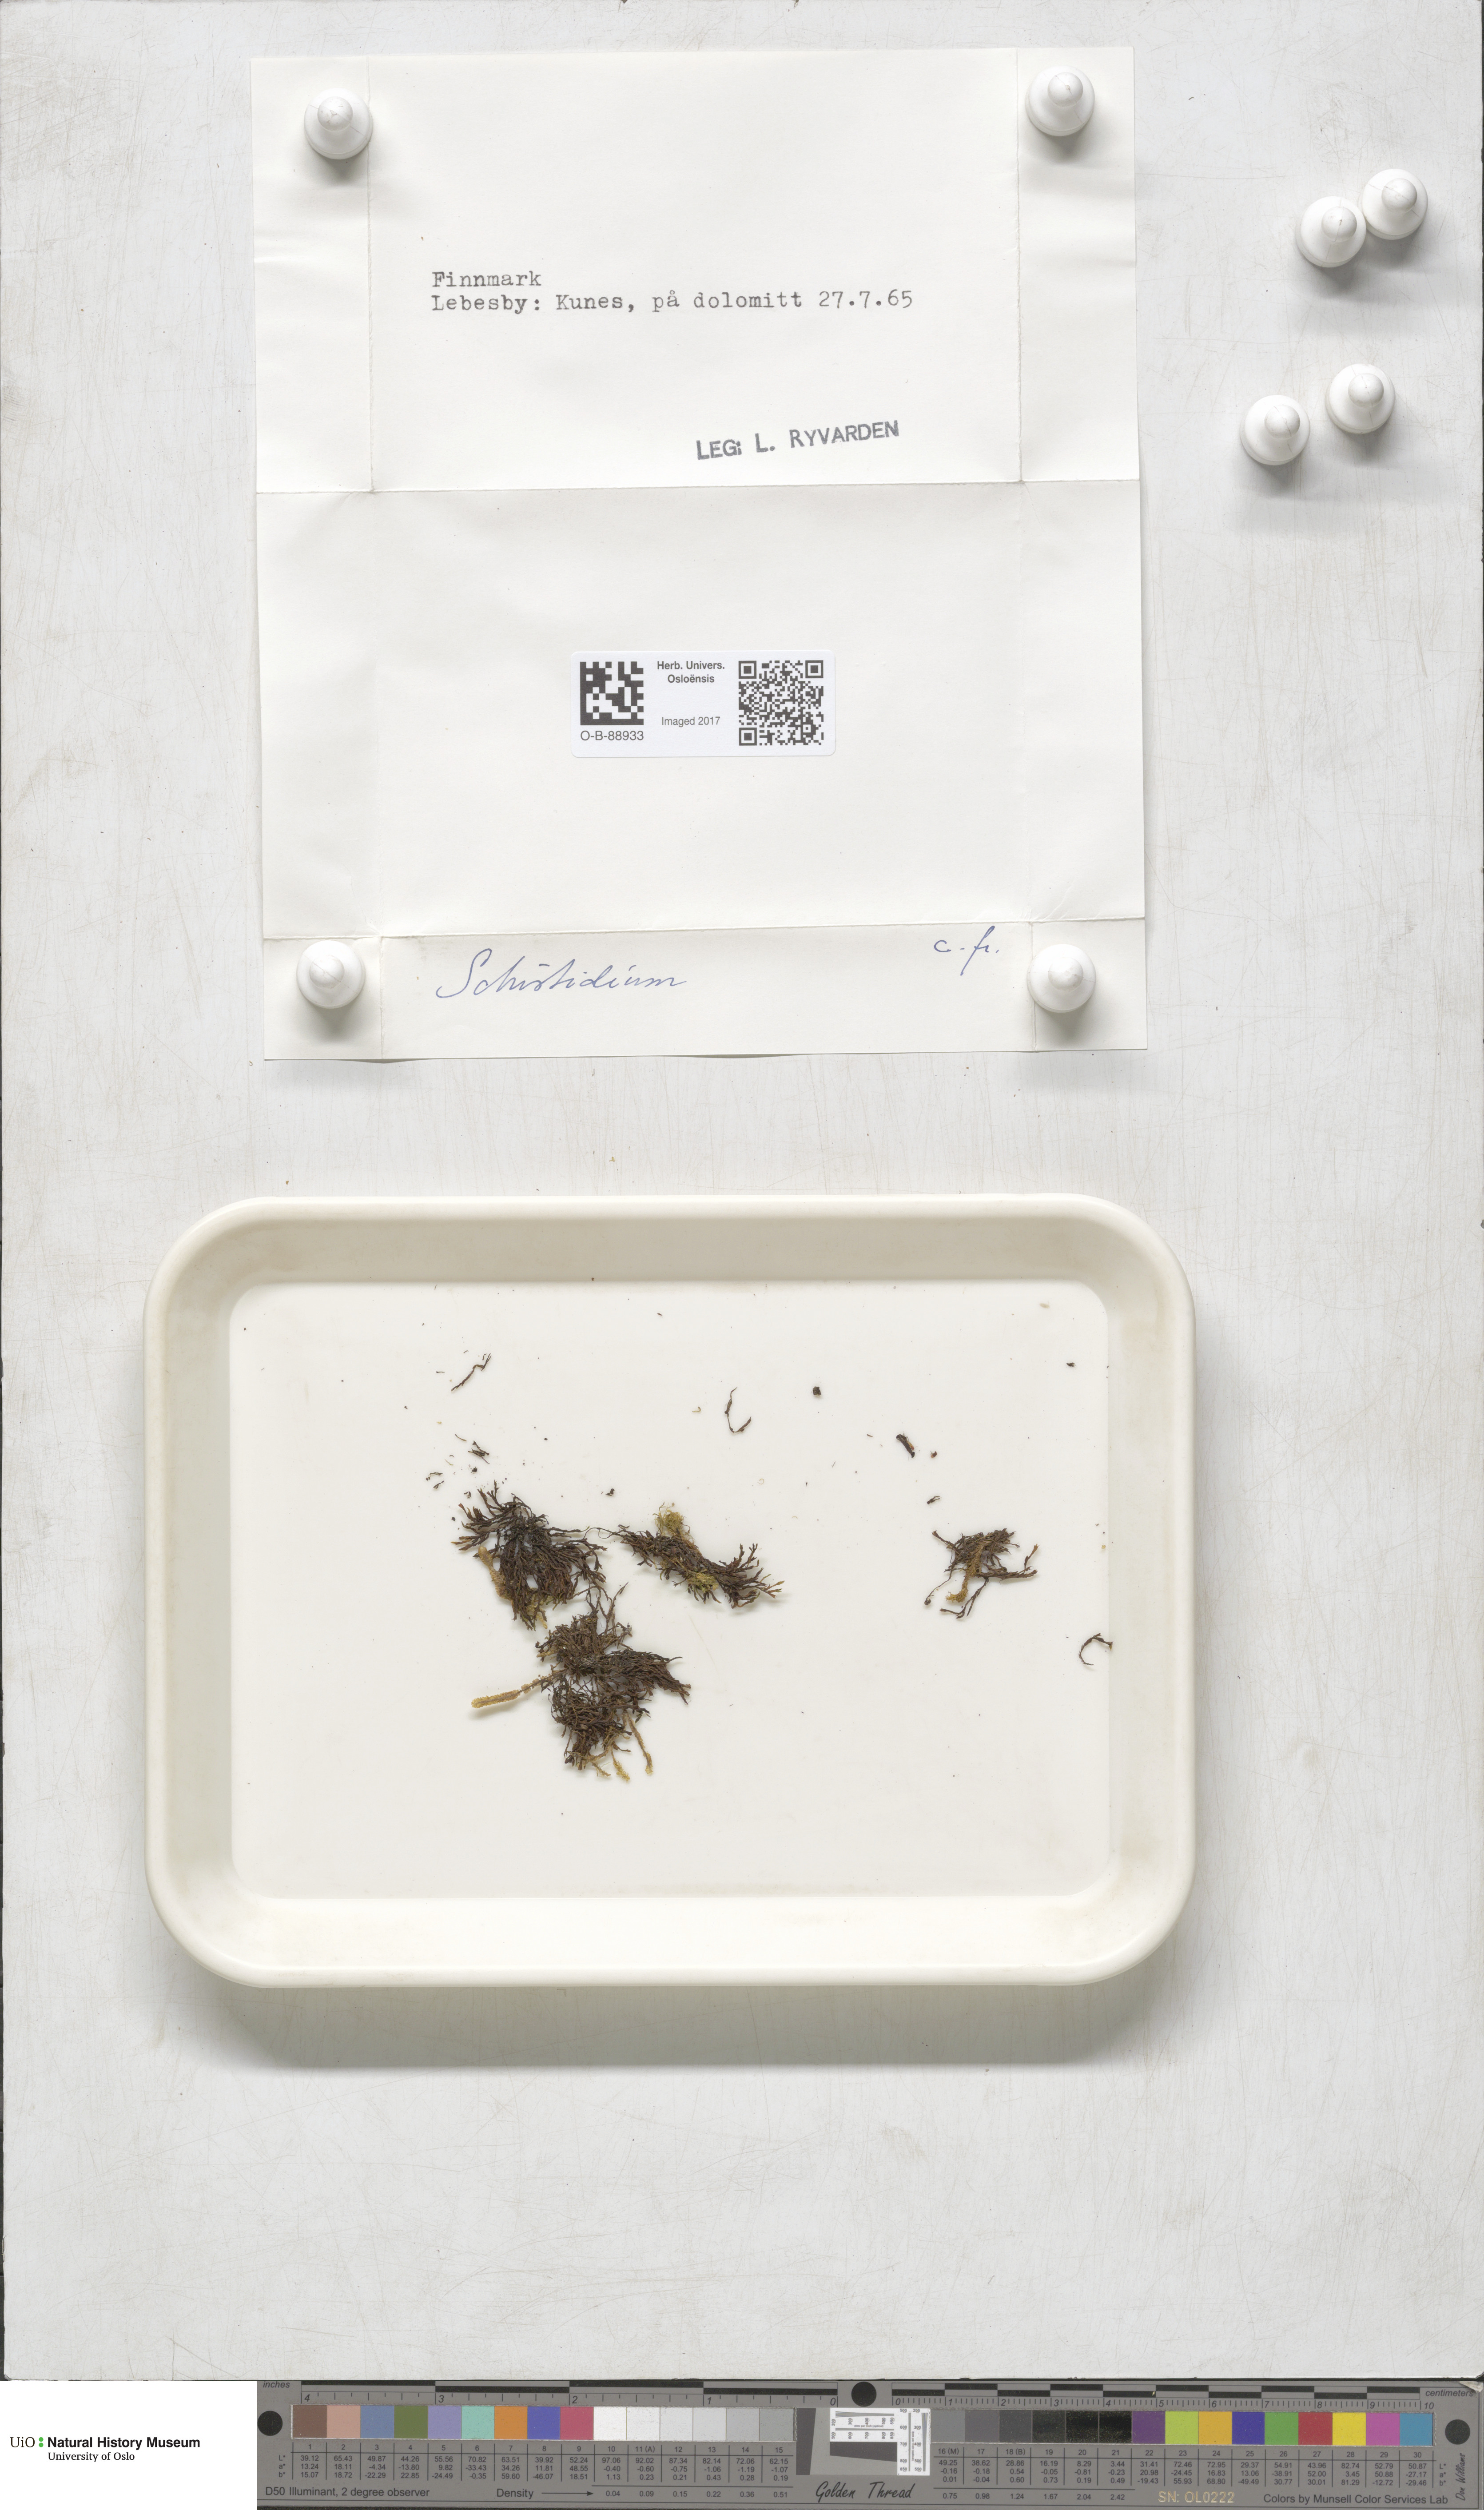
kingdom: Plantae
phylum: Bryophyta
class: Bryopsida
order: Grimmiales
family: Grimmiaceae
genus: Grimmia
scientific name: Grimmia
